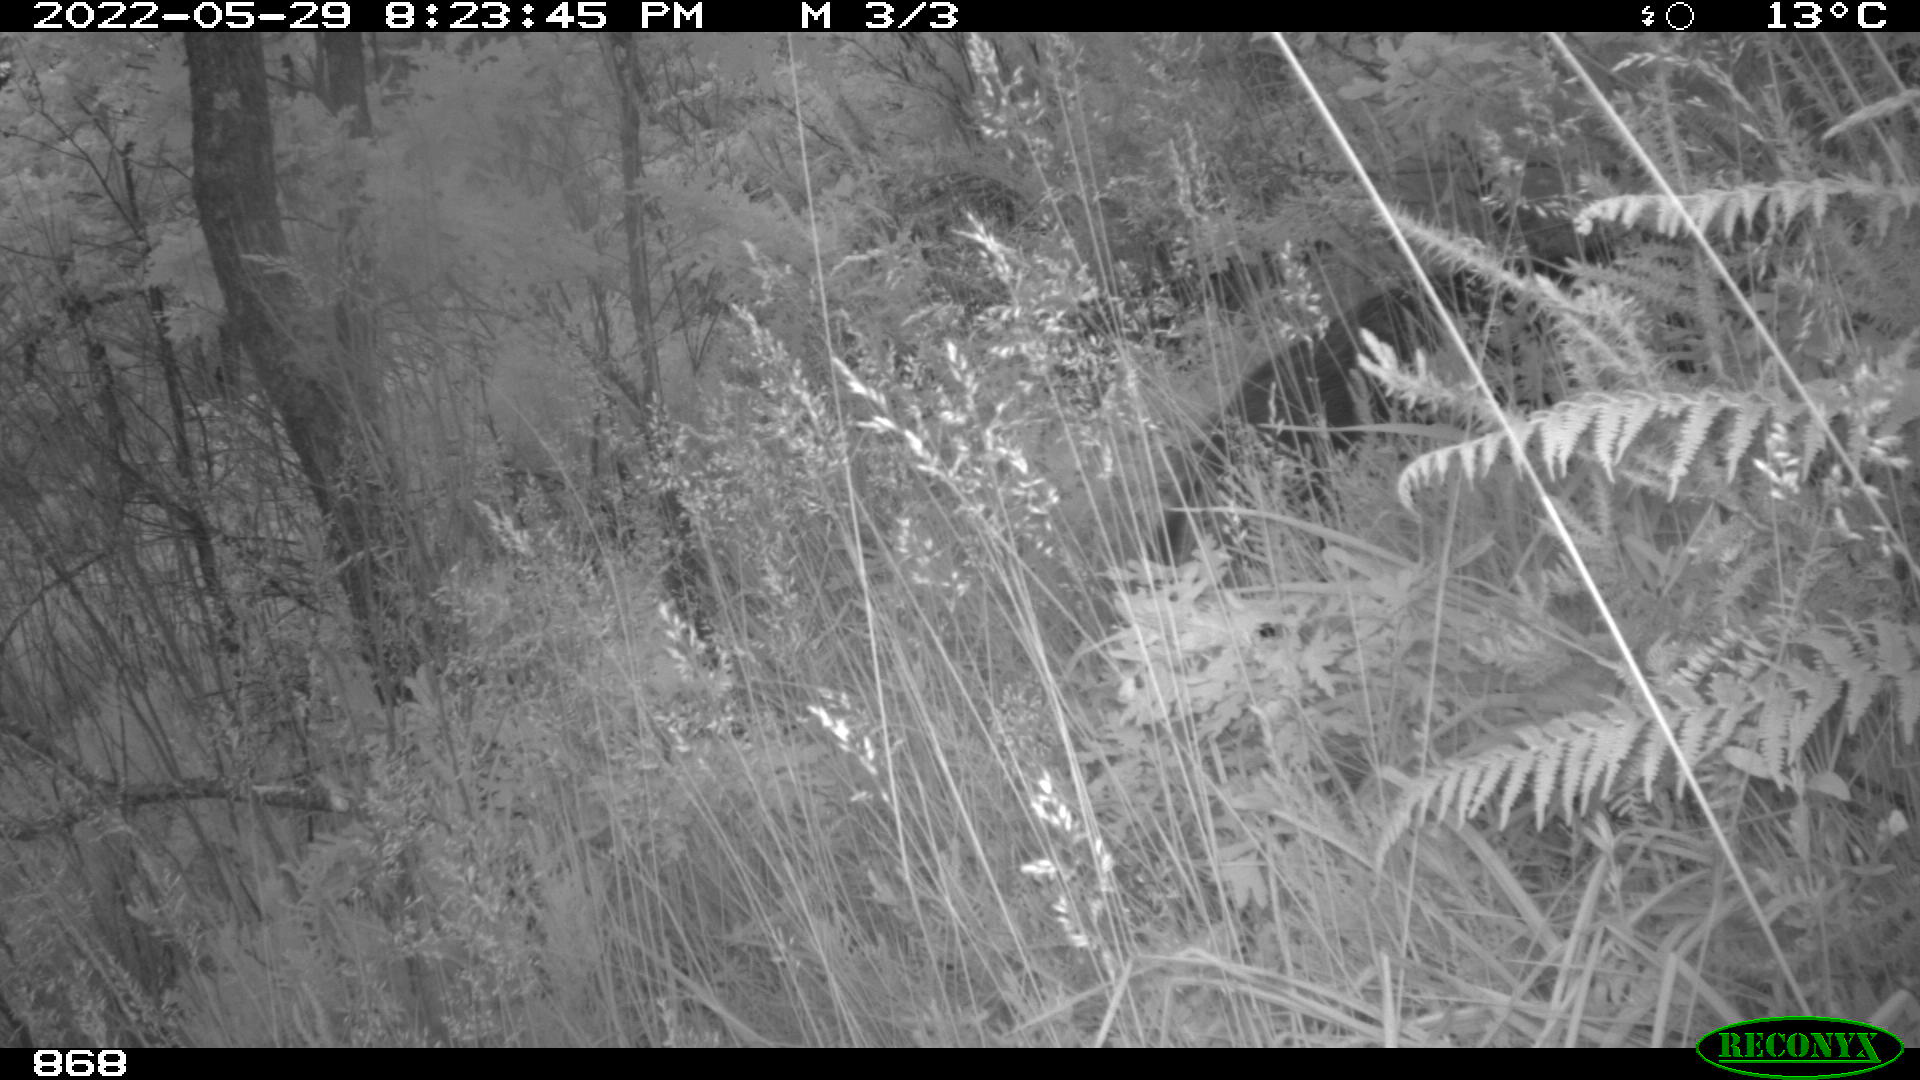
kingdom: Animalia
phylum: Chordata
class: Mammalia
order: Artiodactyla
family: Suidae
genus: Sus
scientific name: Sus scrofa
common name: Wild boar
